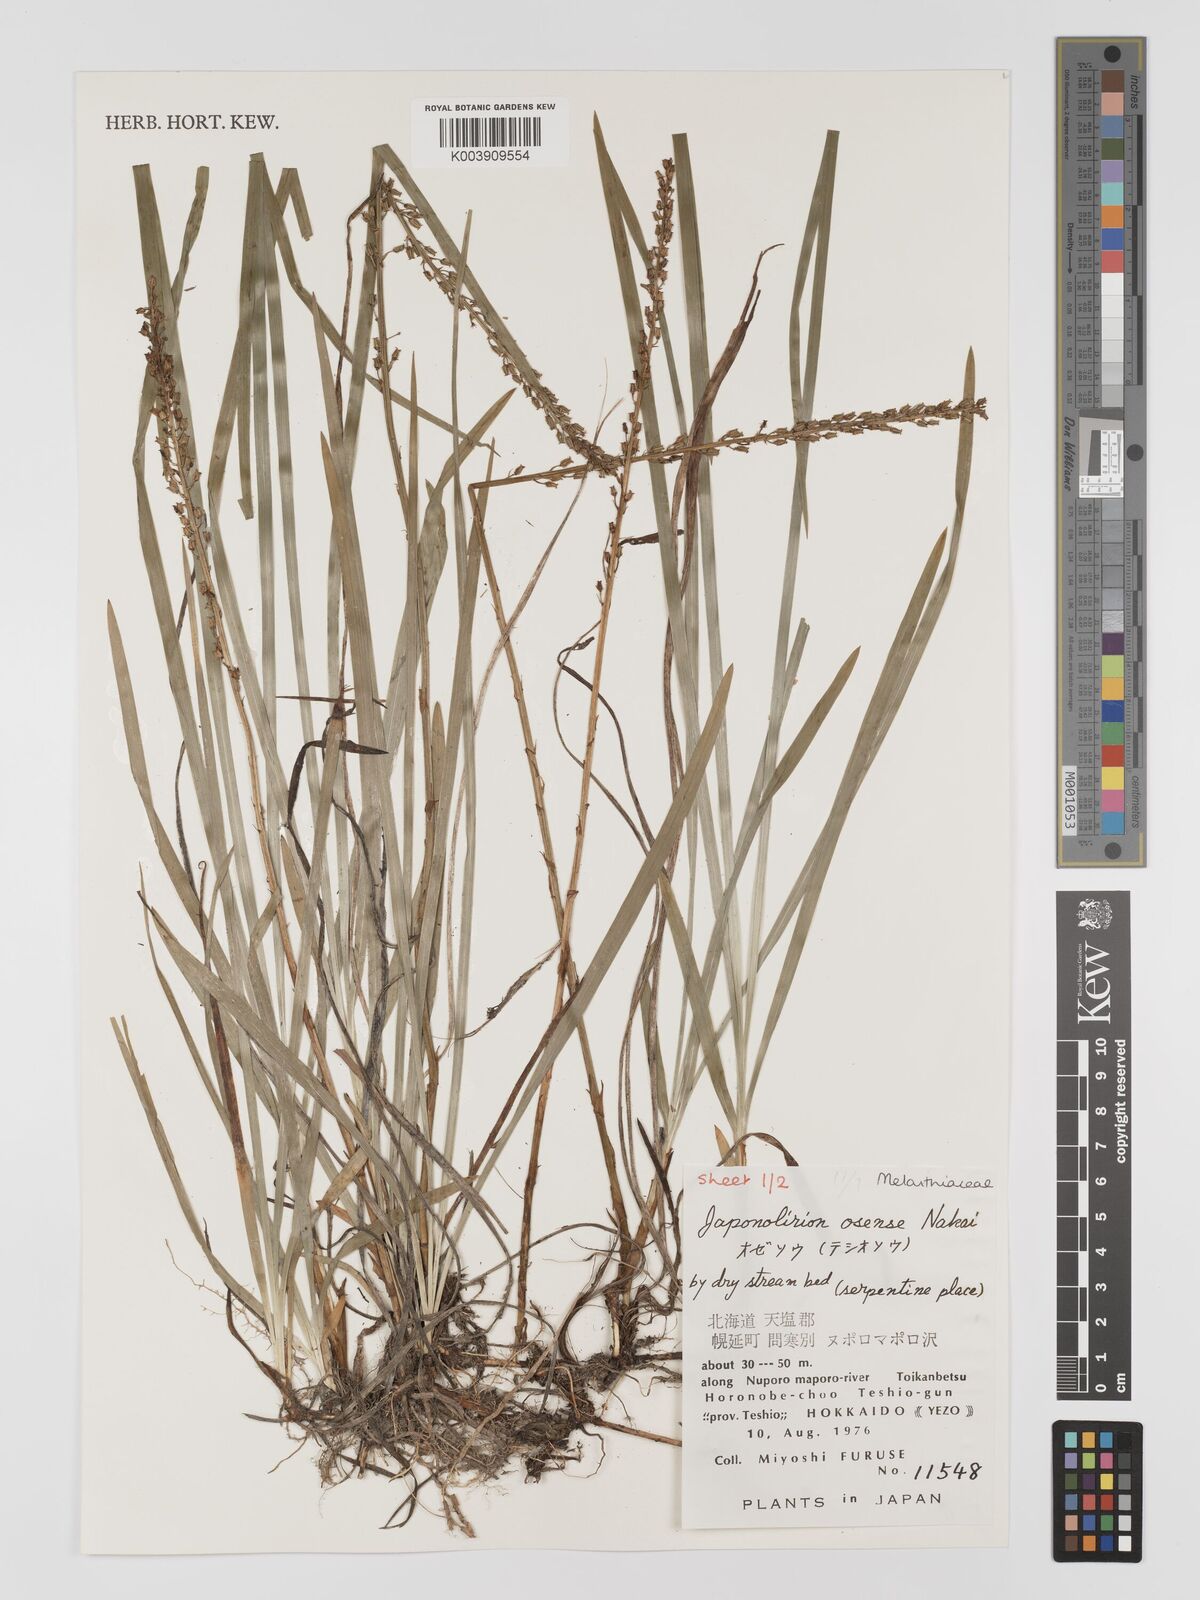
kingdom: Plantae
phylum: Tracheophyta
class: Liliopsida
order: Petrosaviales
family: Petrosaviaceae
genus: Japonolirion
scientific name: Japonolirion osense
